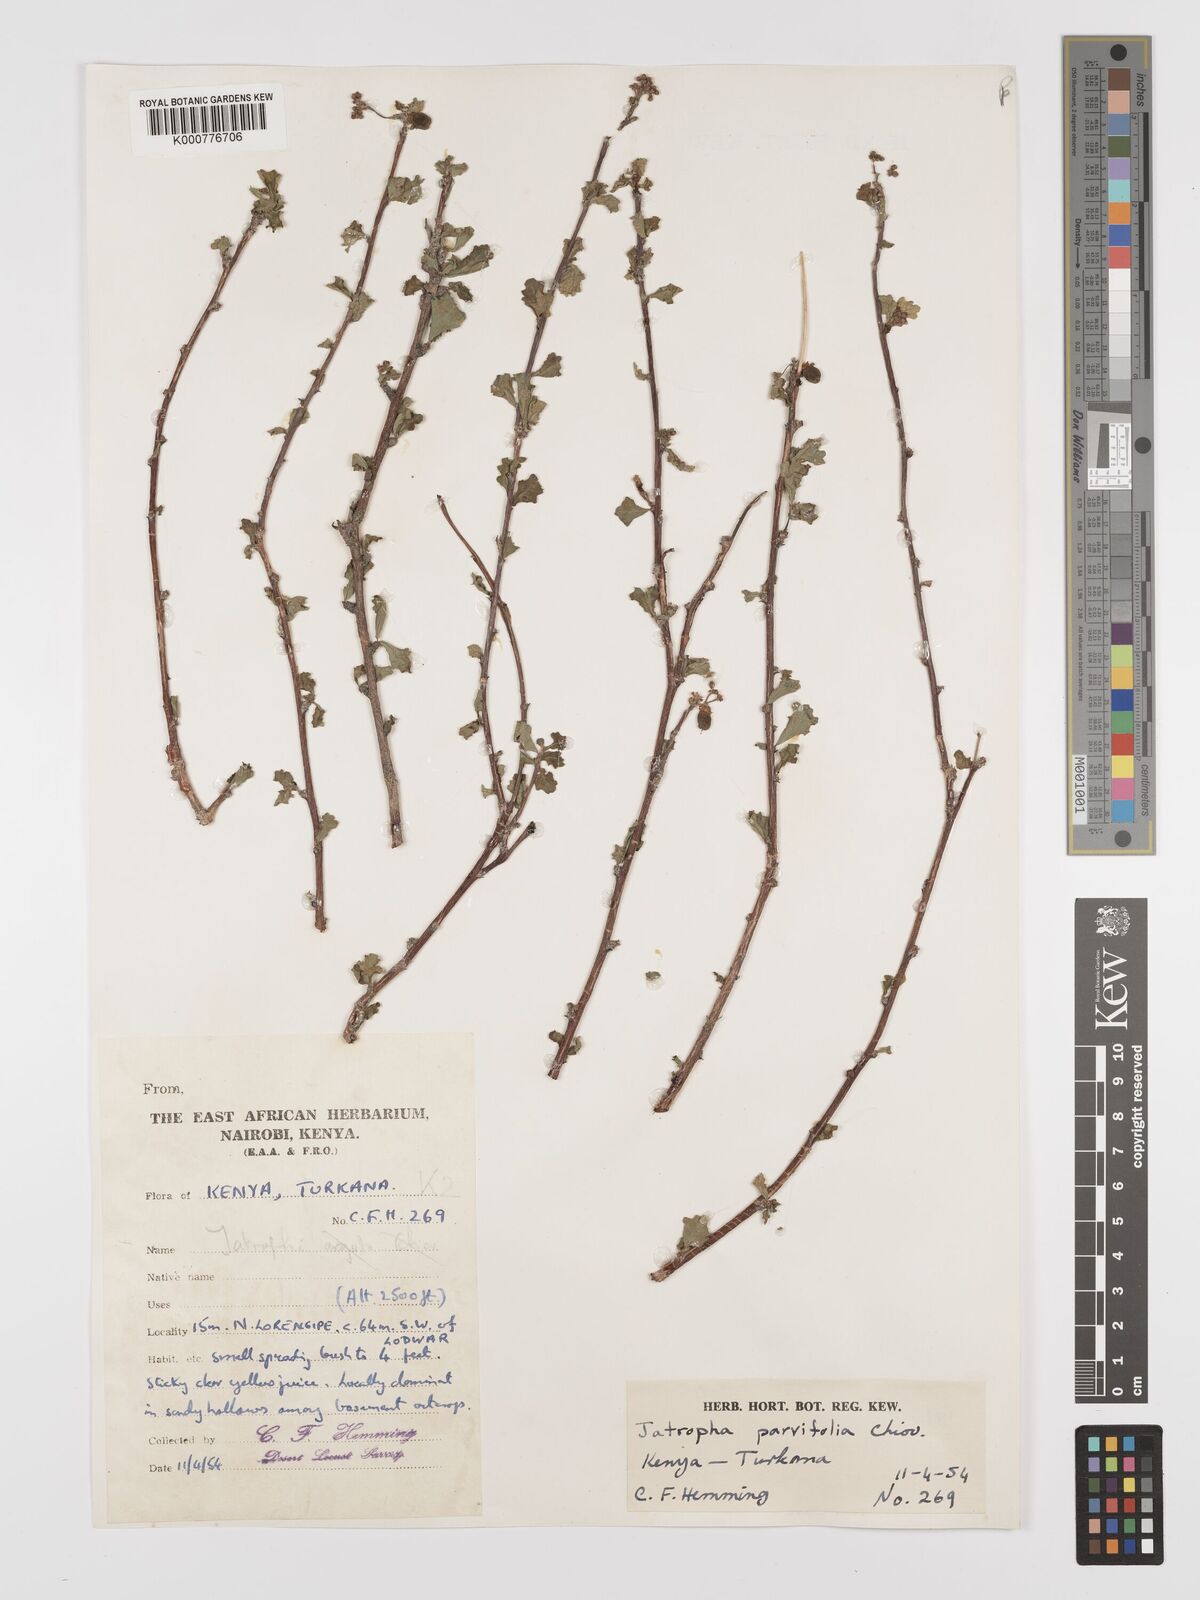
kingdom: Plantae
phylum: Tracheophyta
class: Magnoliopsida
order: Malpighiales
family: Euphorbiaceae
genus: Jatropha
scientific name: Jatropha rivae
